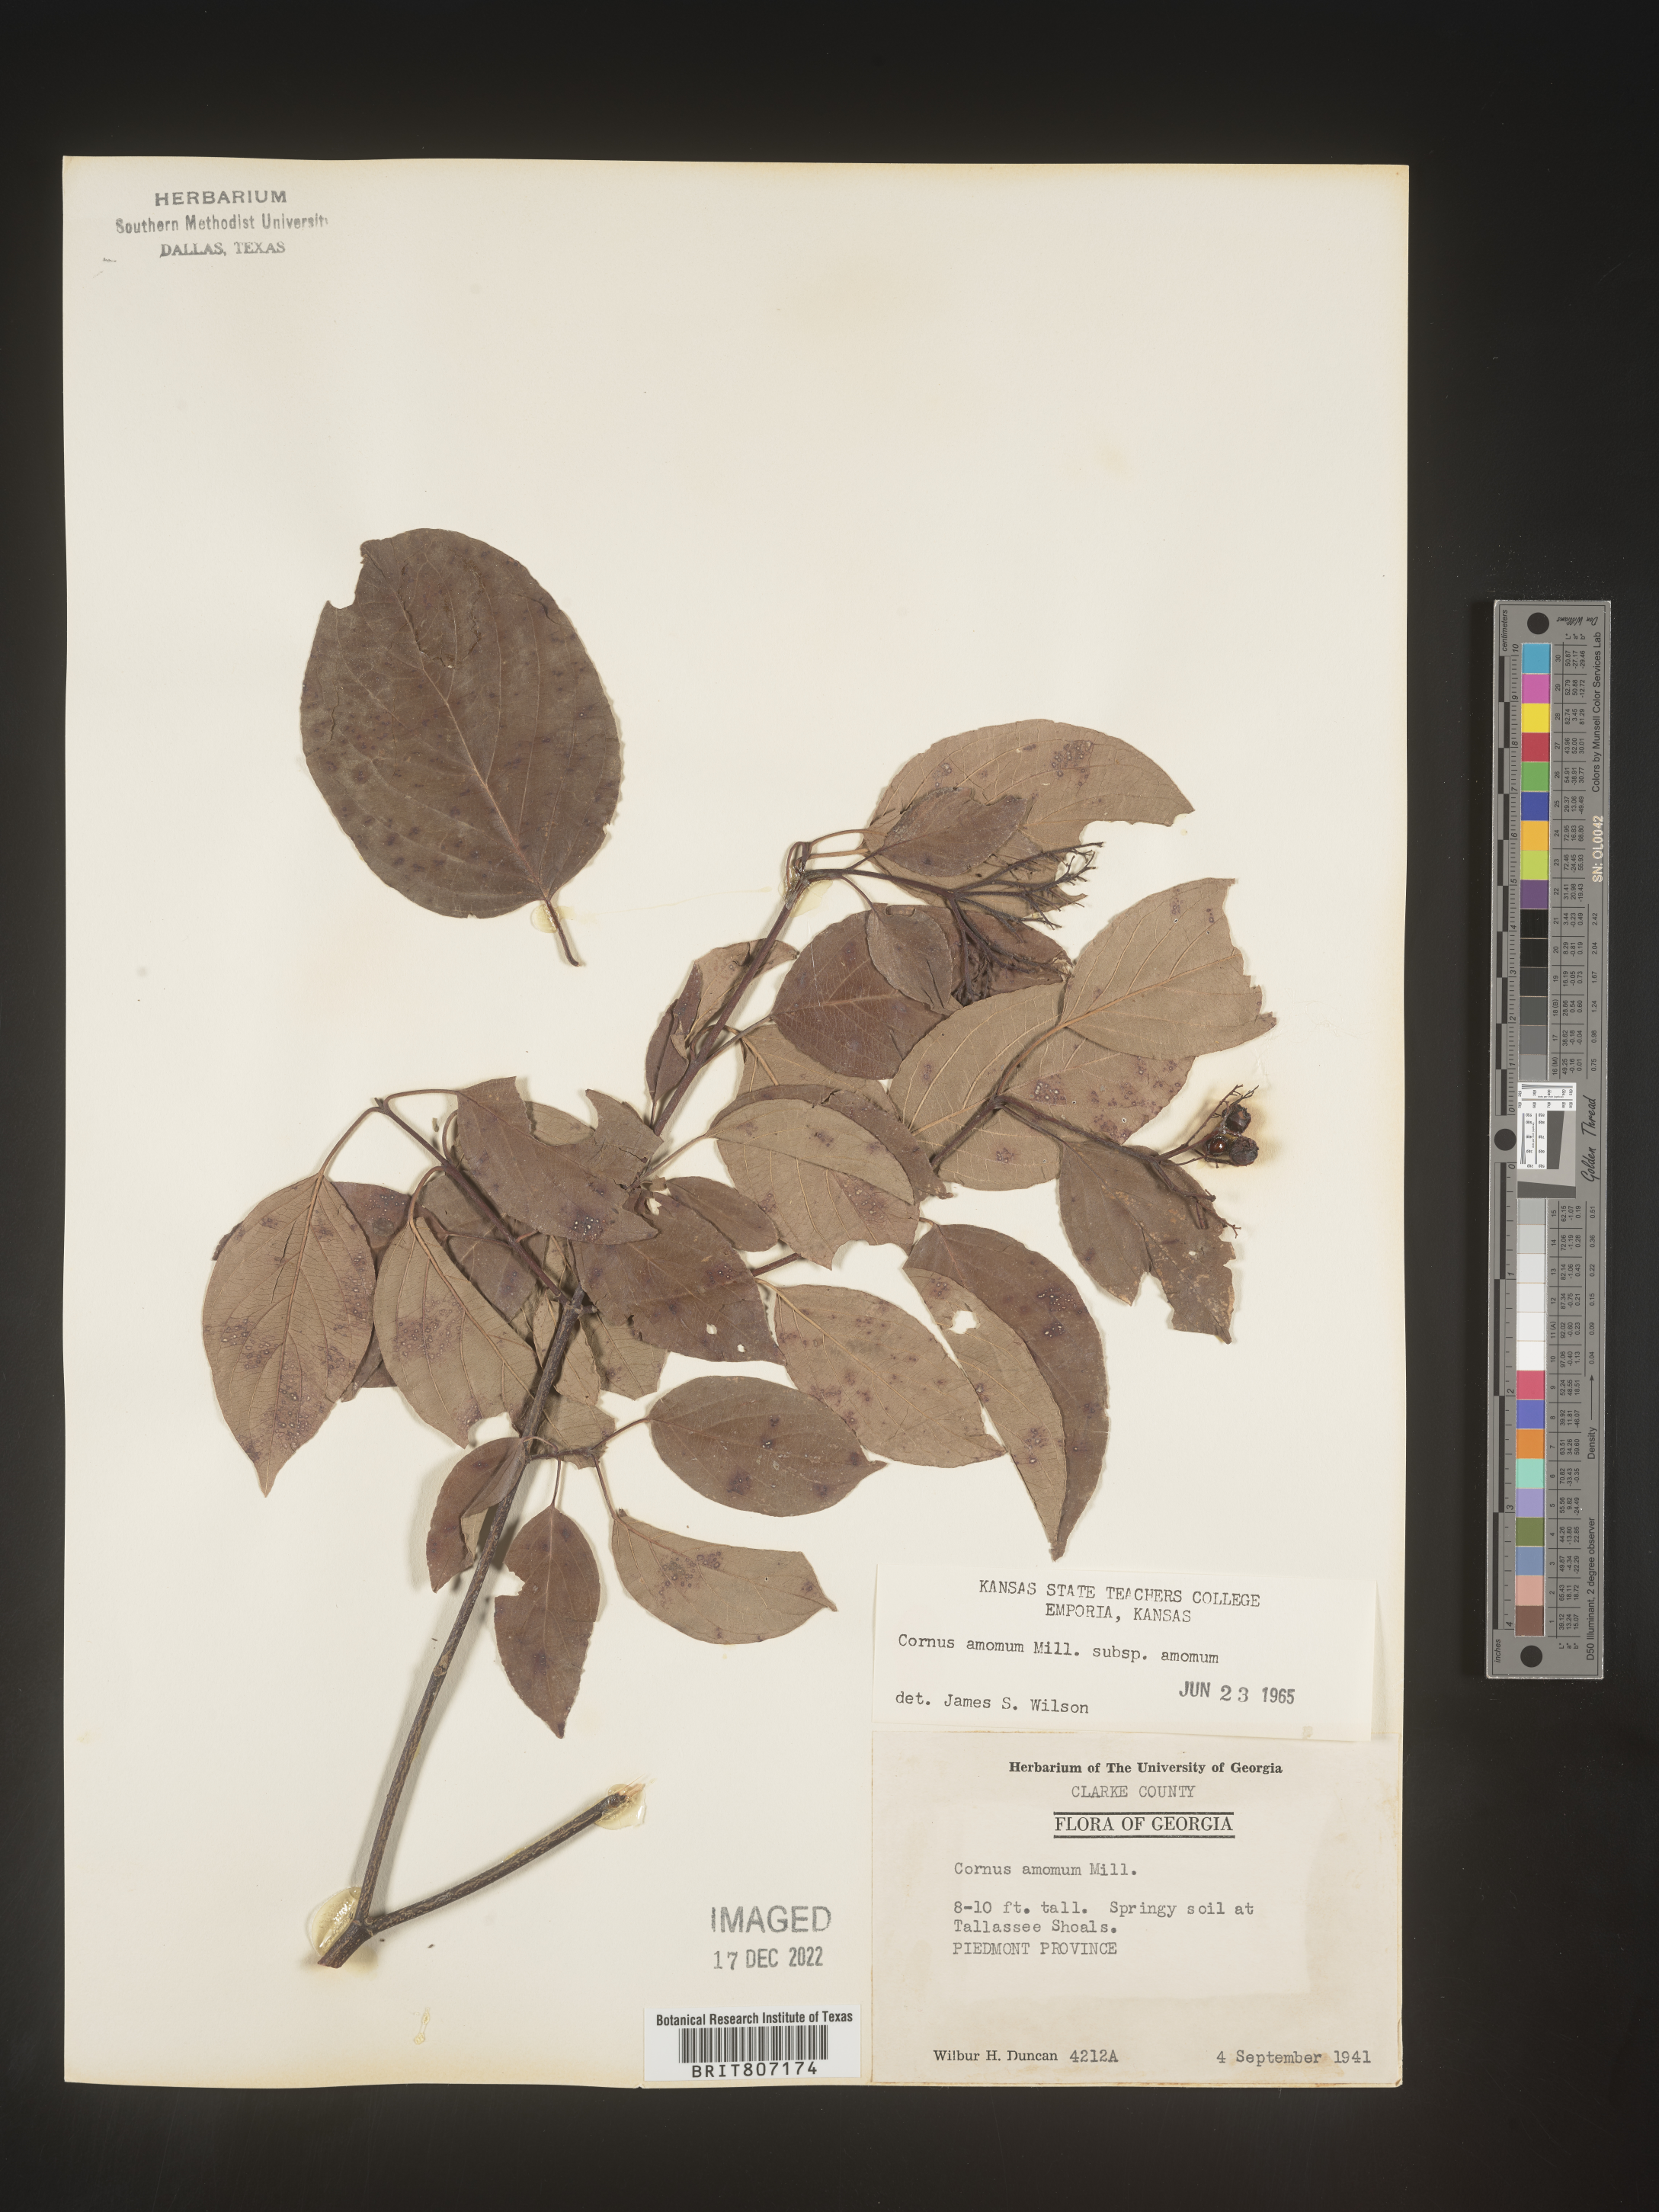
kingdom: Plantae
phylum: Tracheophyta
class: Magnoliopsida
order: Cornales
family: Cornaceae
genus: Cornus
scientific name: Cornus amomum
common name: Silky dogwood
